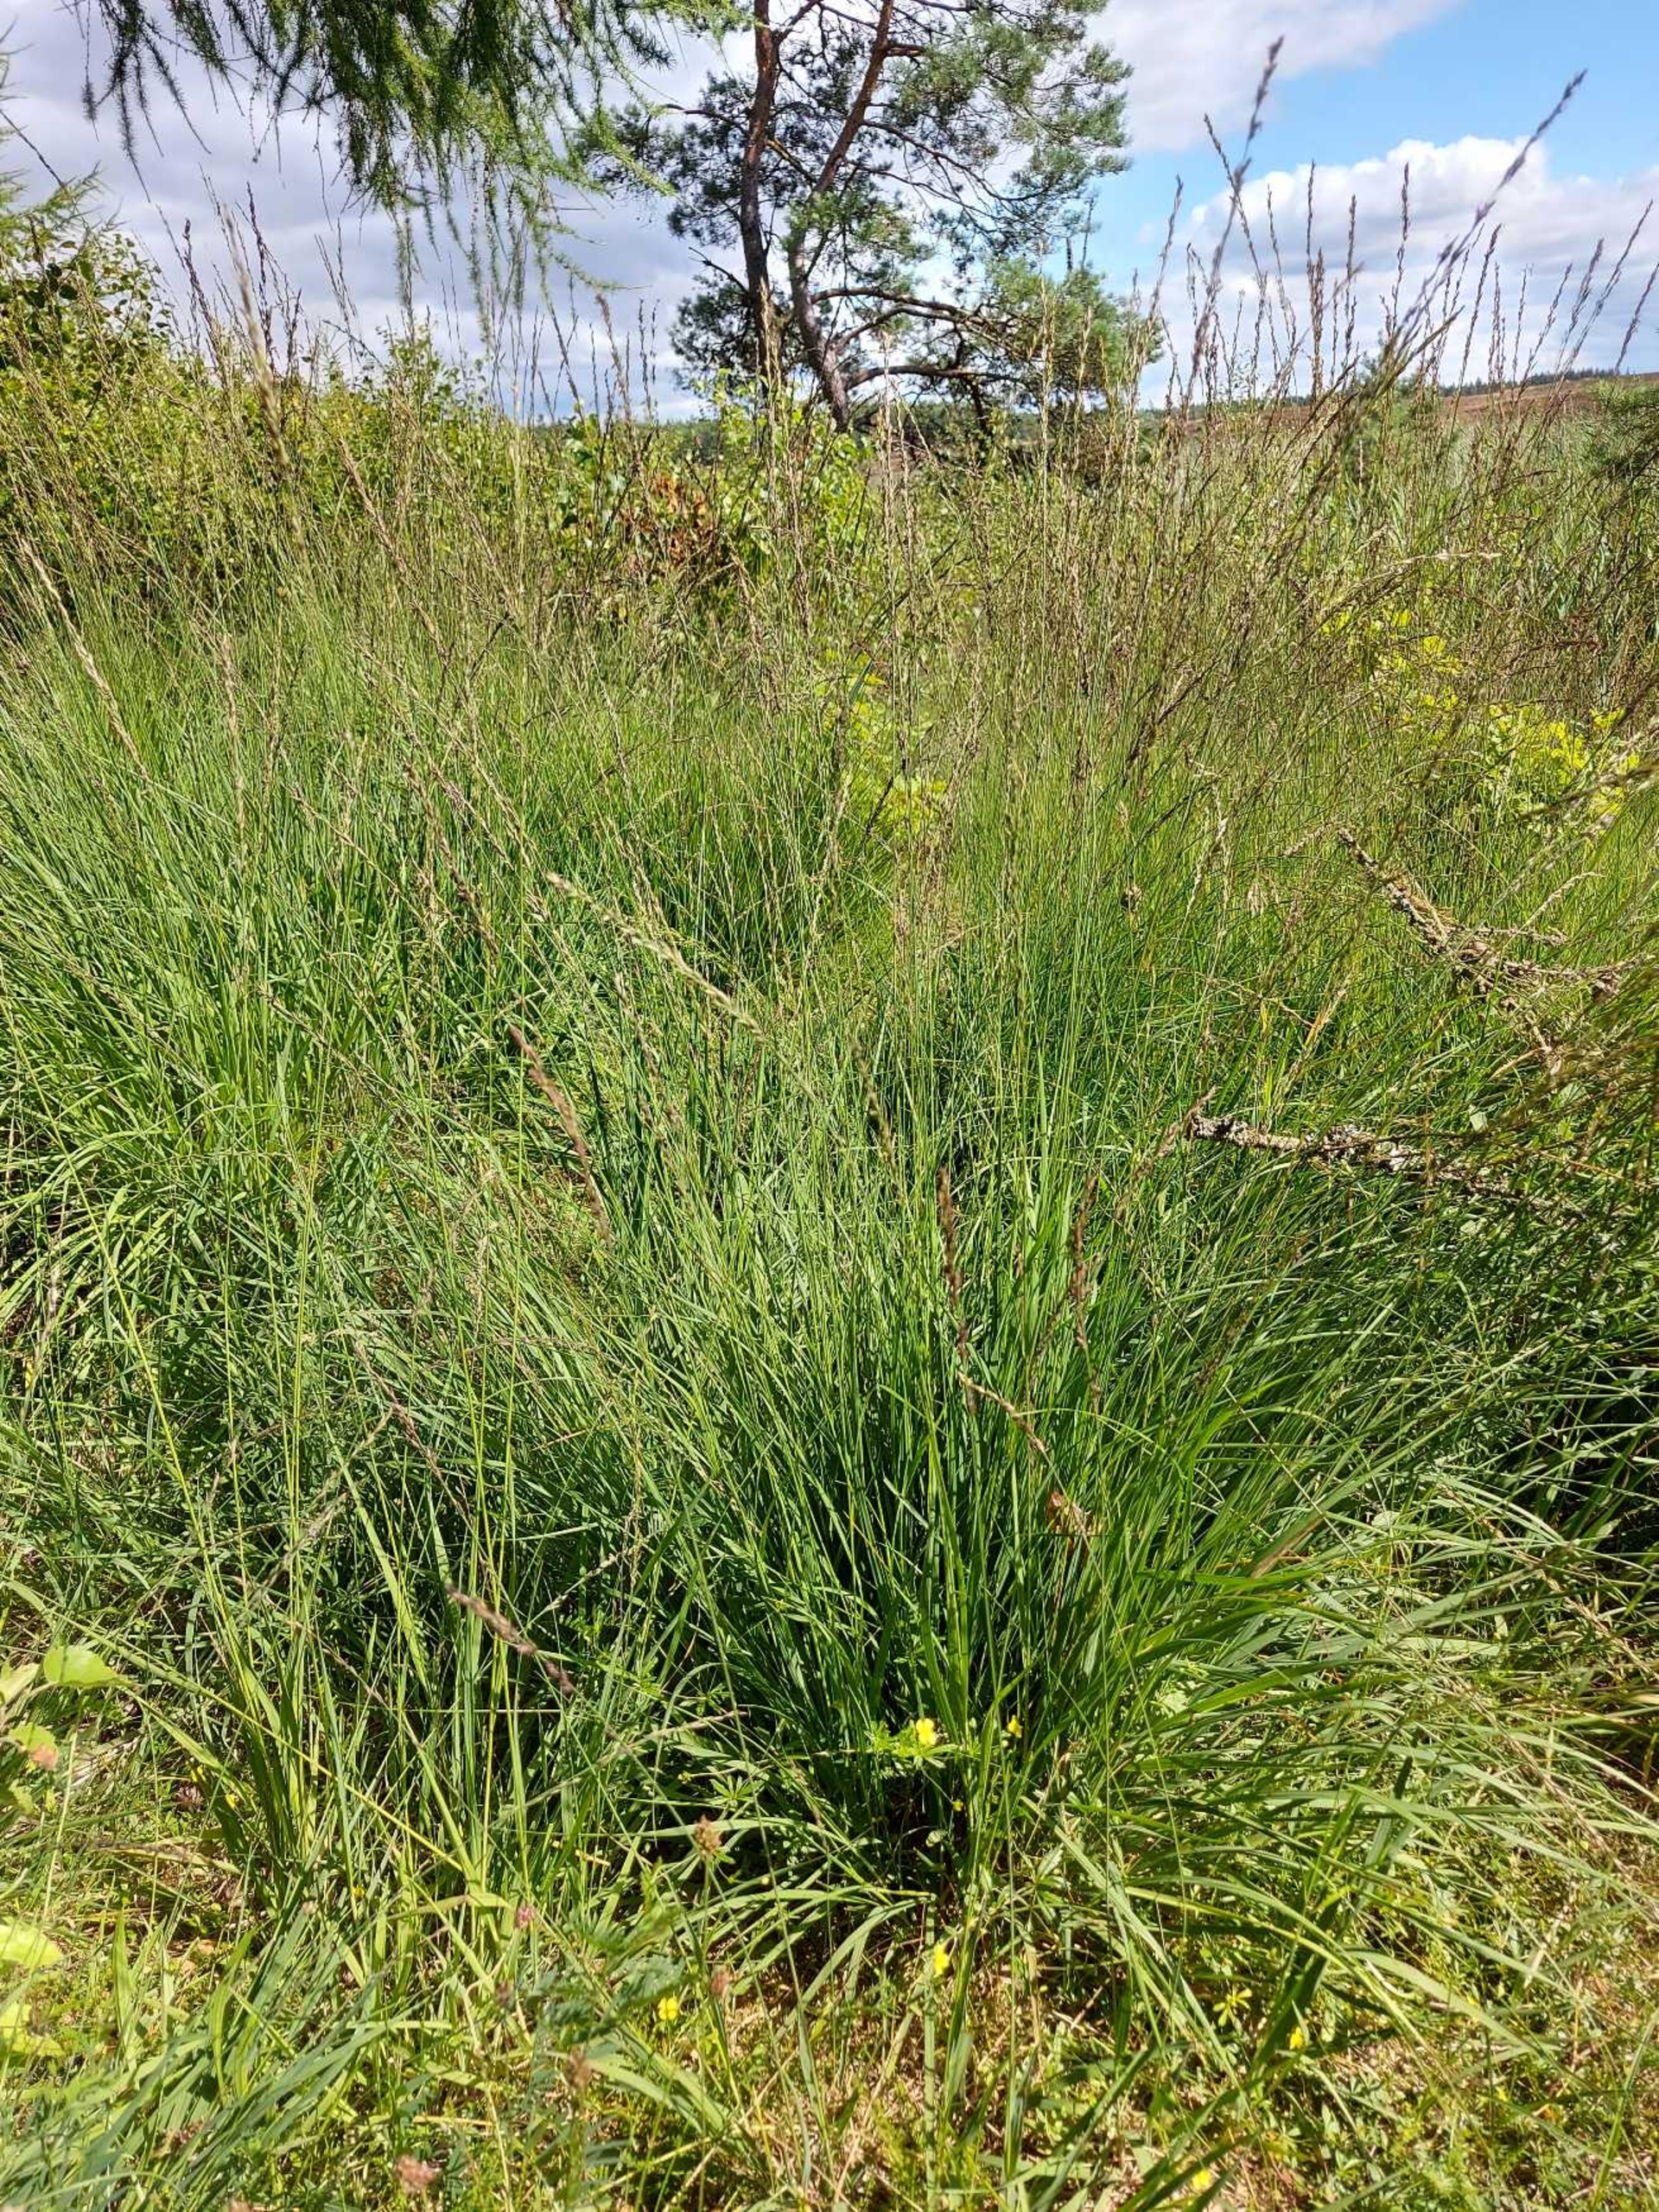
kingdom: Plantae
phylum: Tracheophyta
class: Liliopsida
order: Poales
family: Poaceae
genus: Molinia
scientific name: Molinia caerulea
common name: Blåtop
